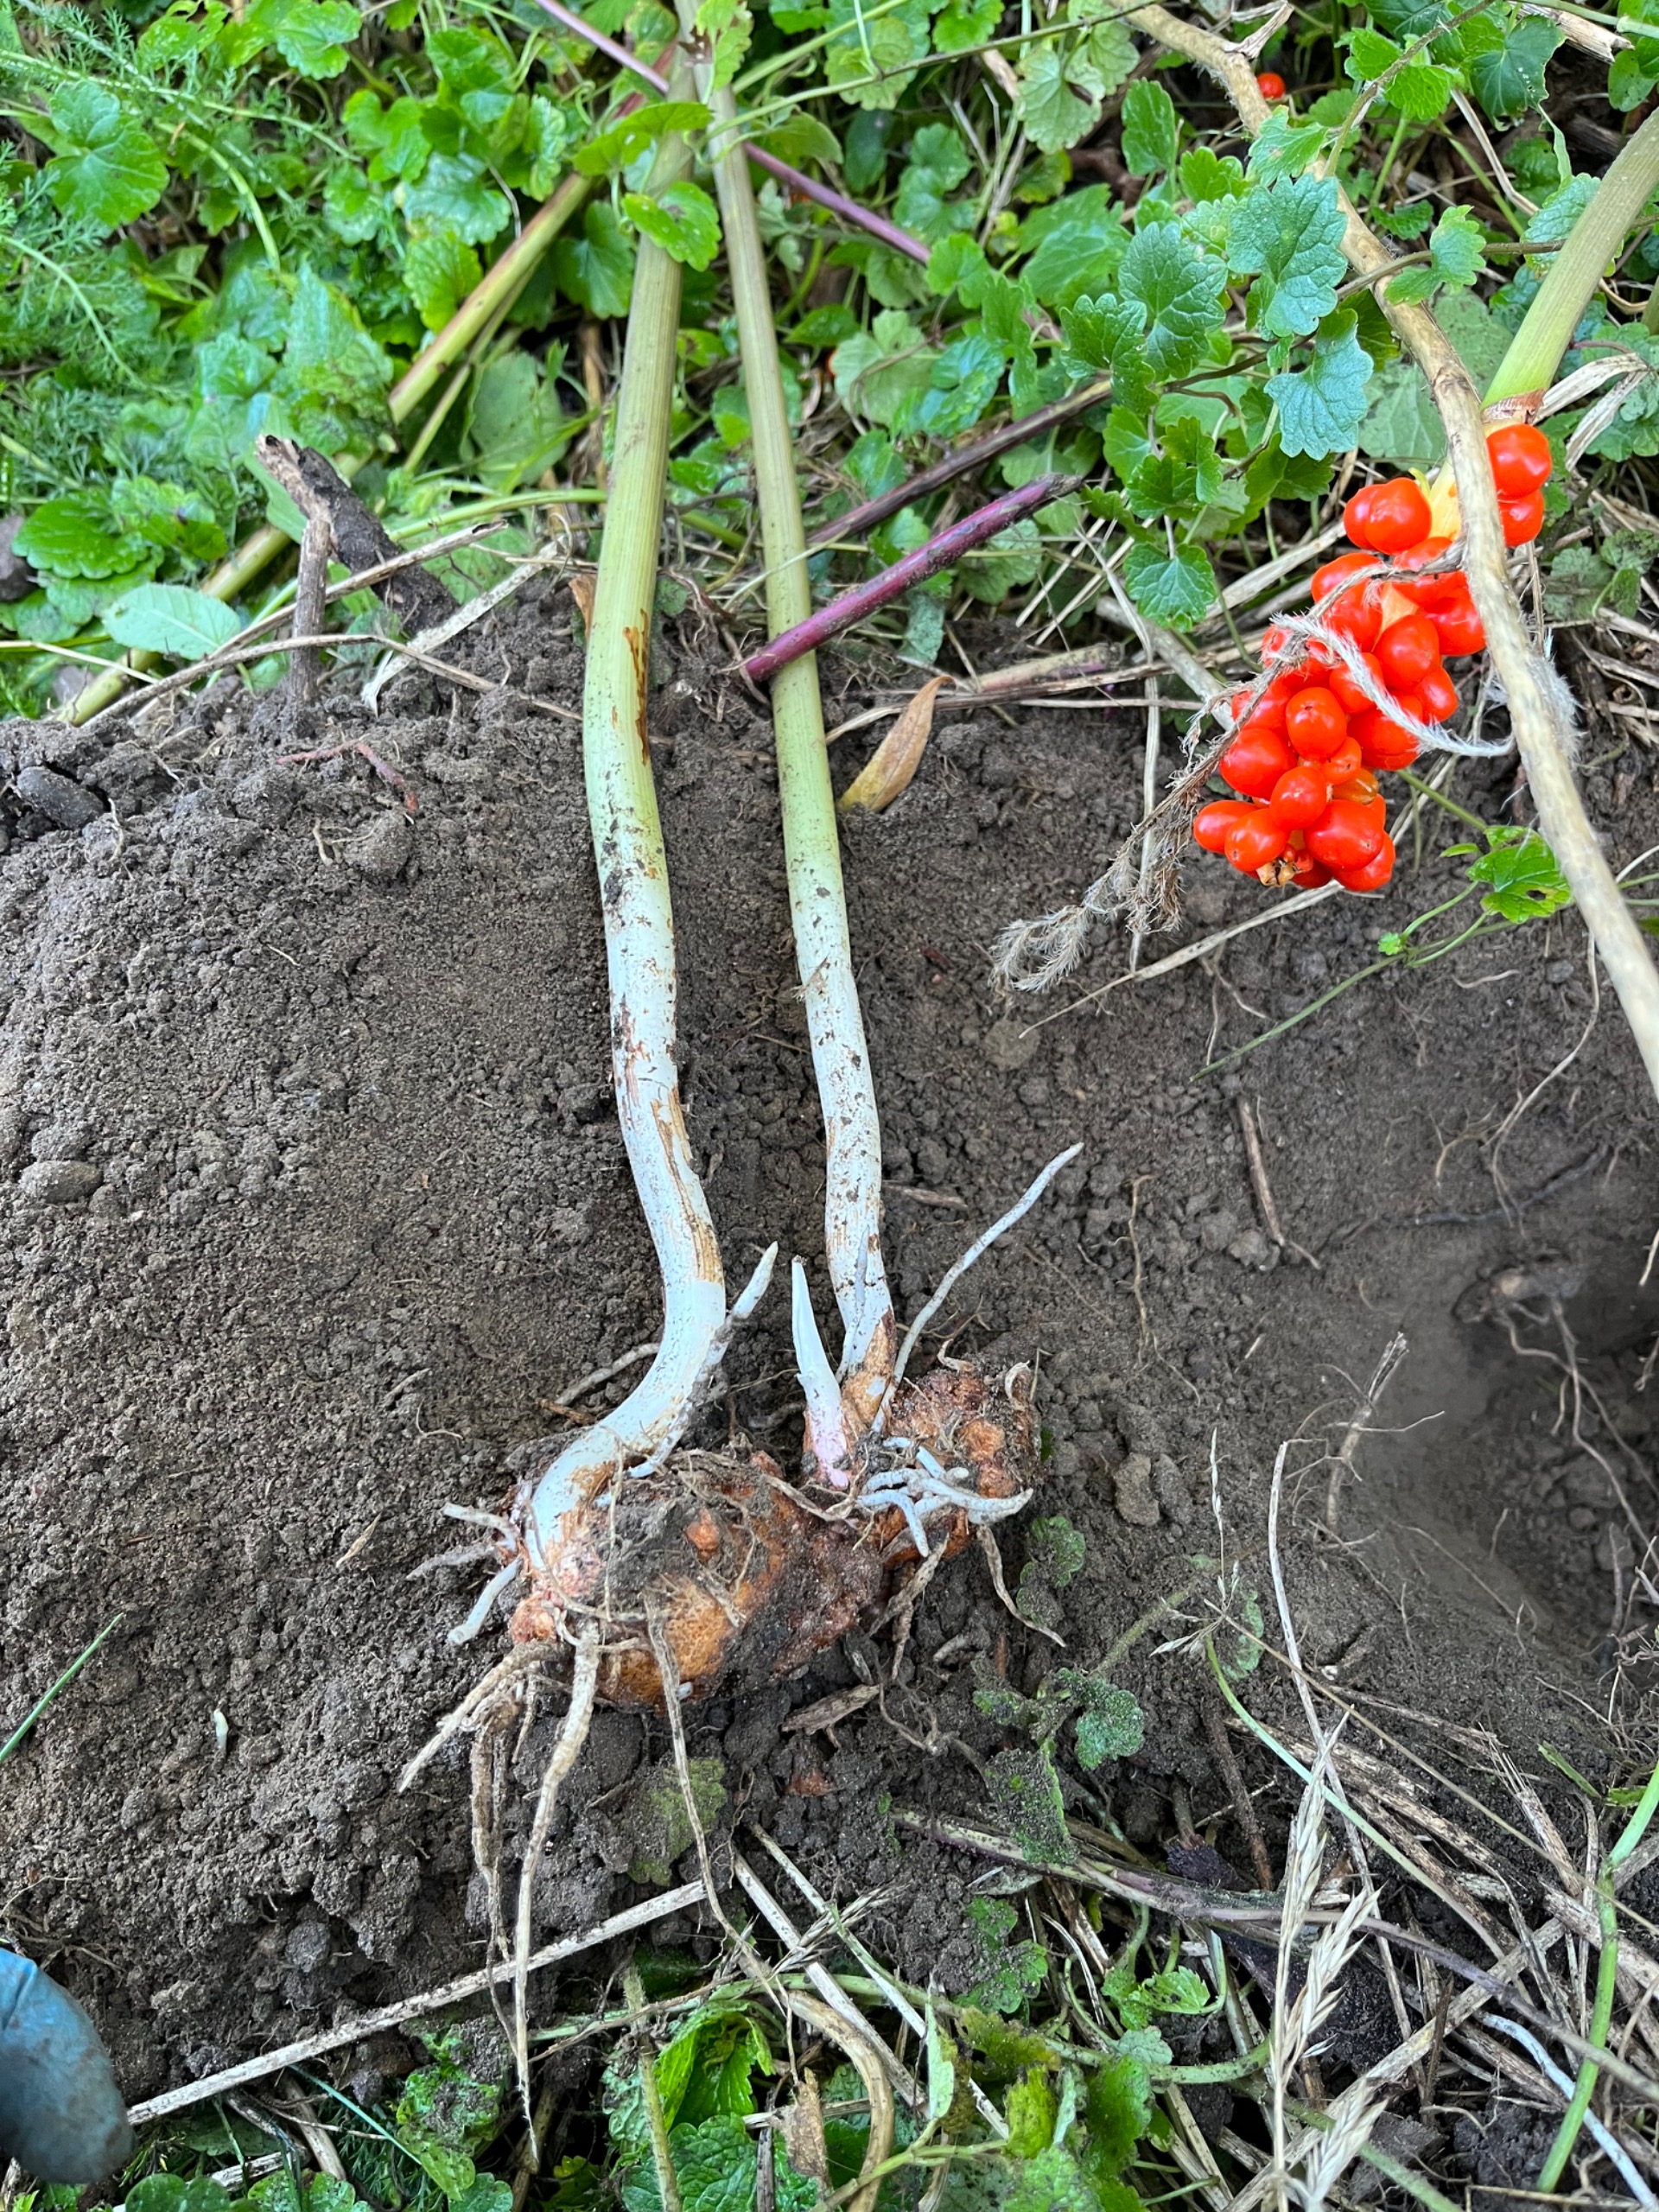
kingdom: Plantae
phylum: Tracheophyta
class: Liliopsida
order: Alismatales
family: Araceae
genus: Arum
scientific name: Arum italicum
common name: Italiensk arum
